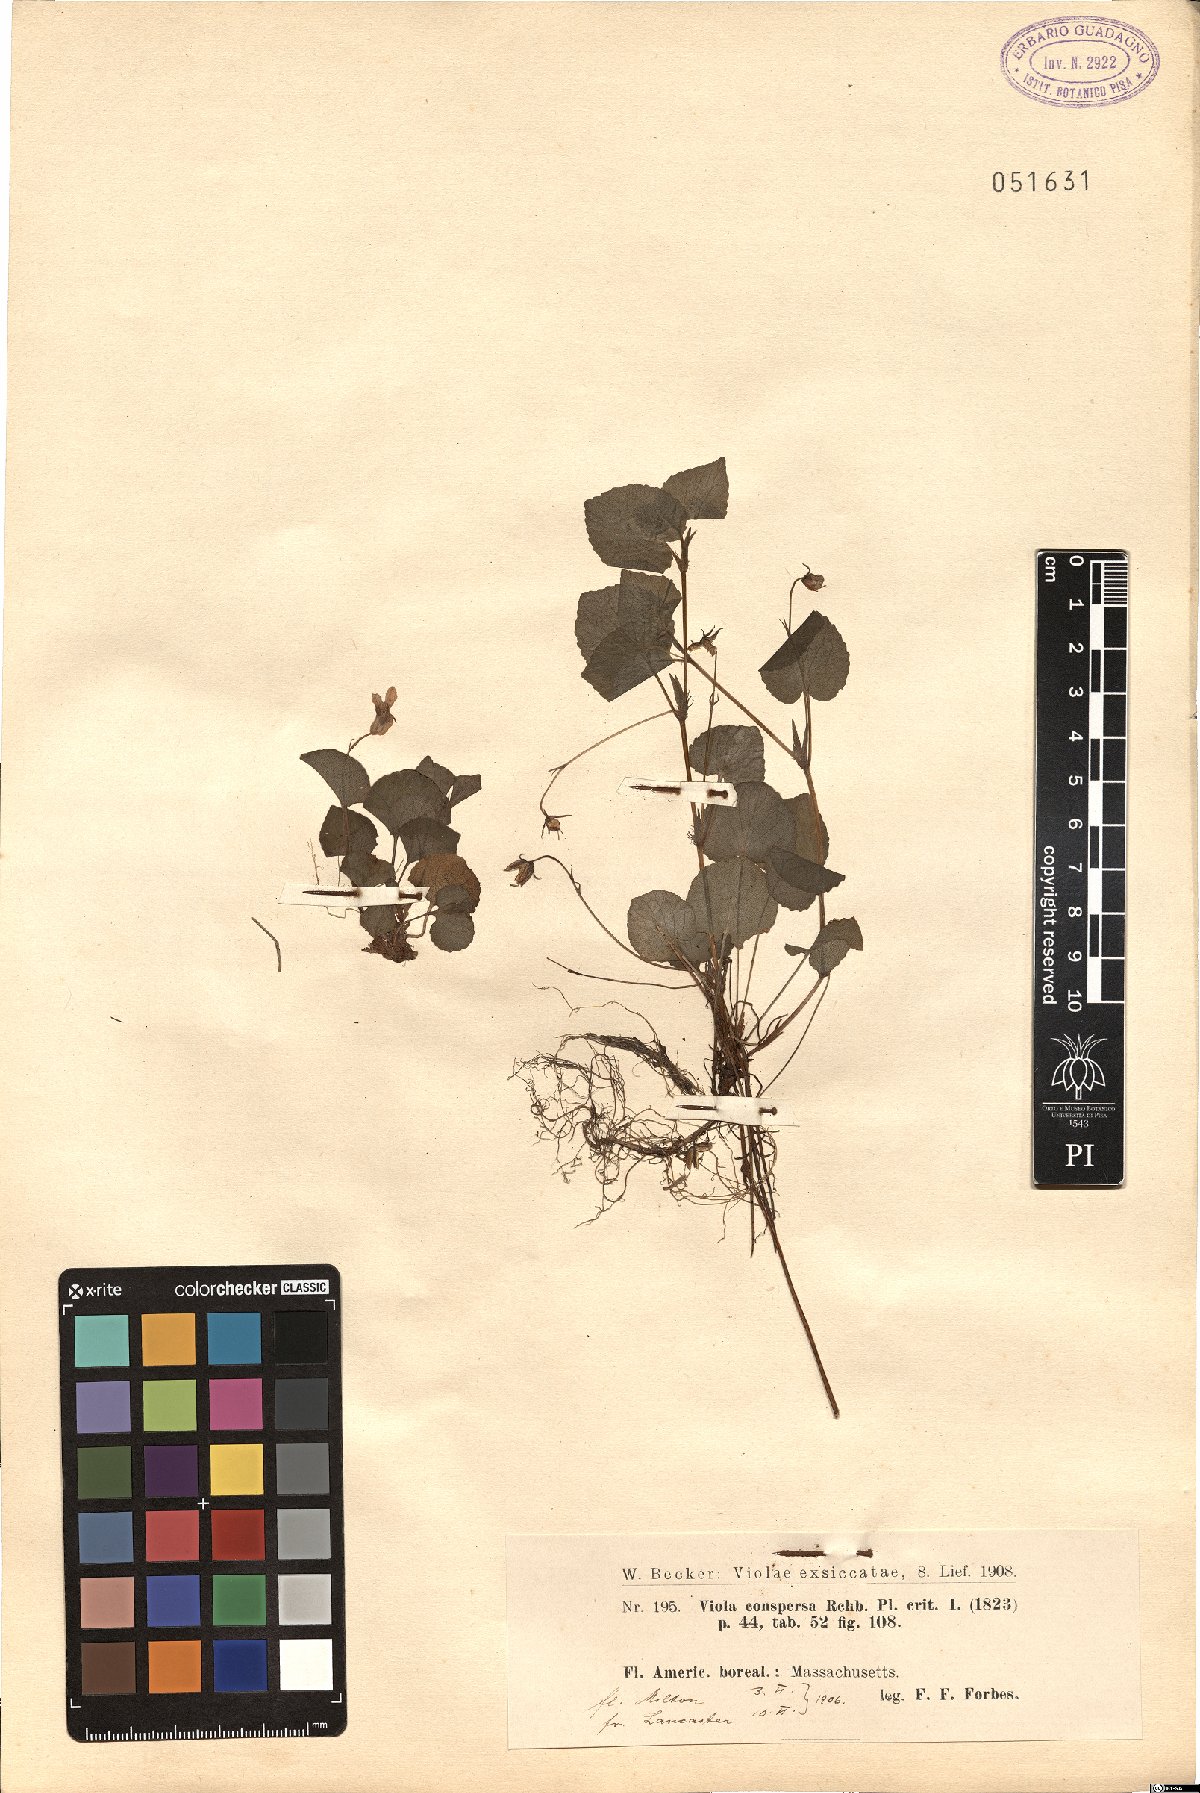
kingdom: Plantae
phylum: Tracheophyta
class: Magnoliopsida
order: Malpighiales
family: Violaceae
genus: Viola
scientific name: Viola labradorica
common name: Labrador violet
